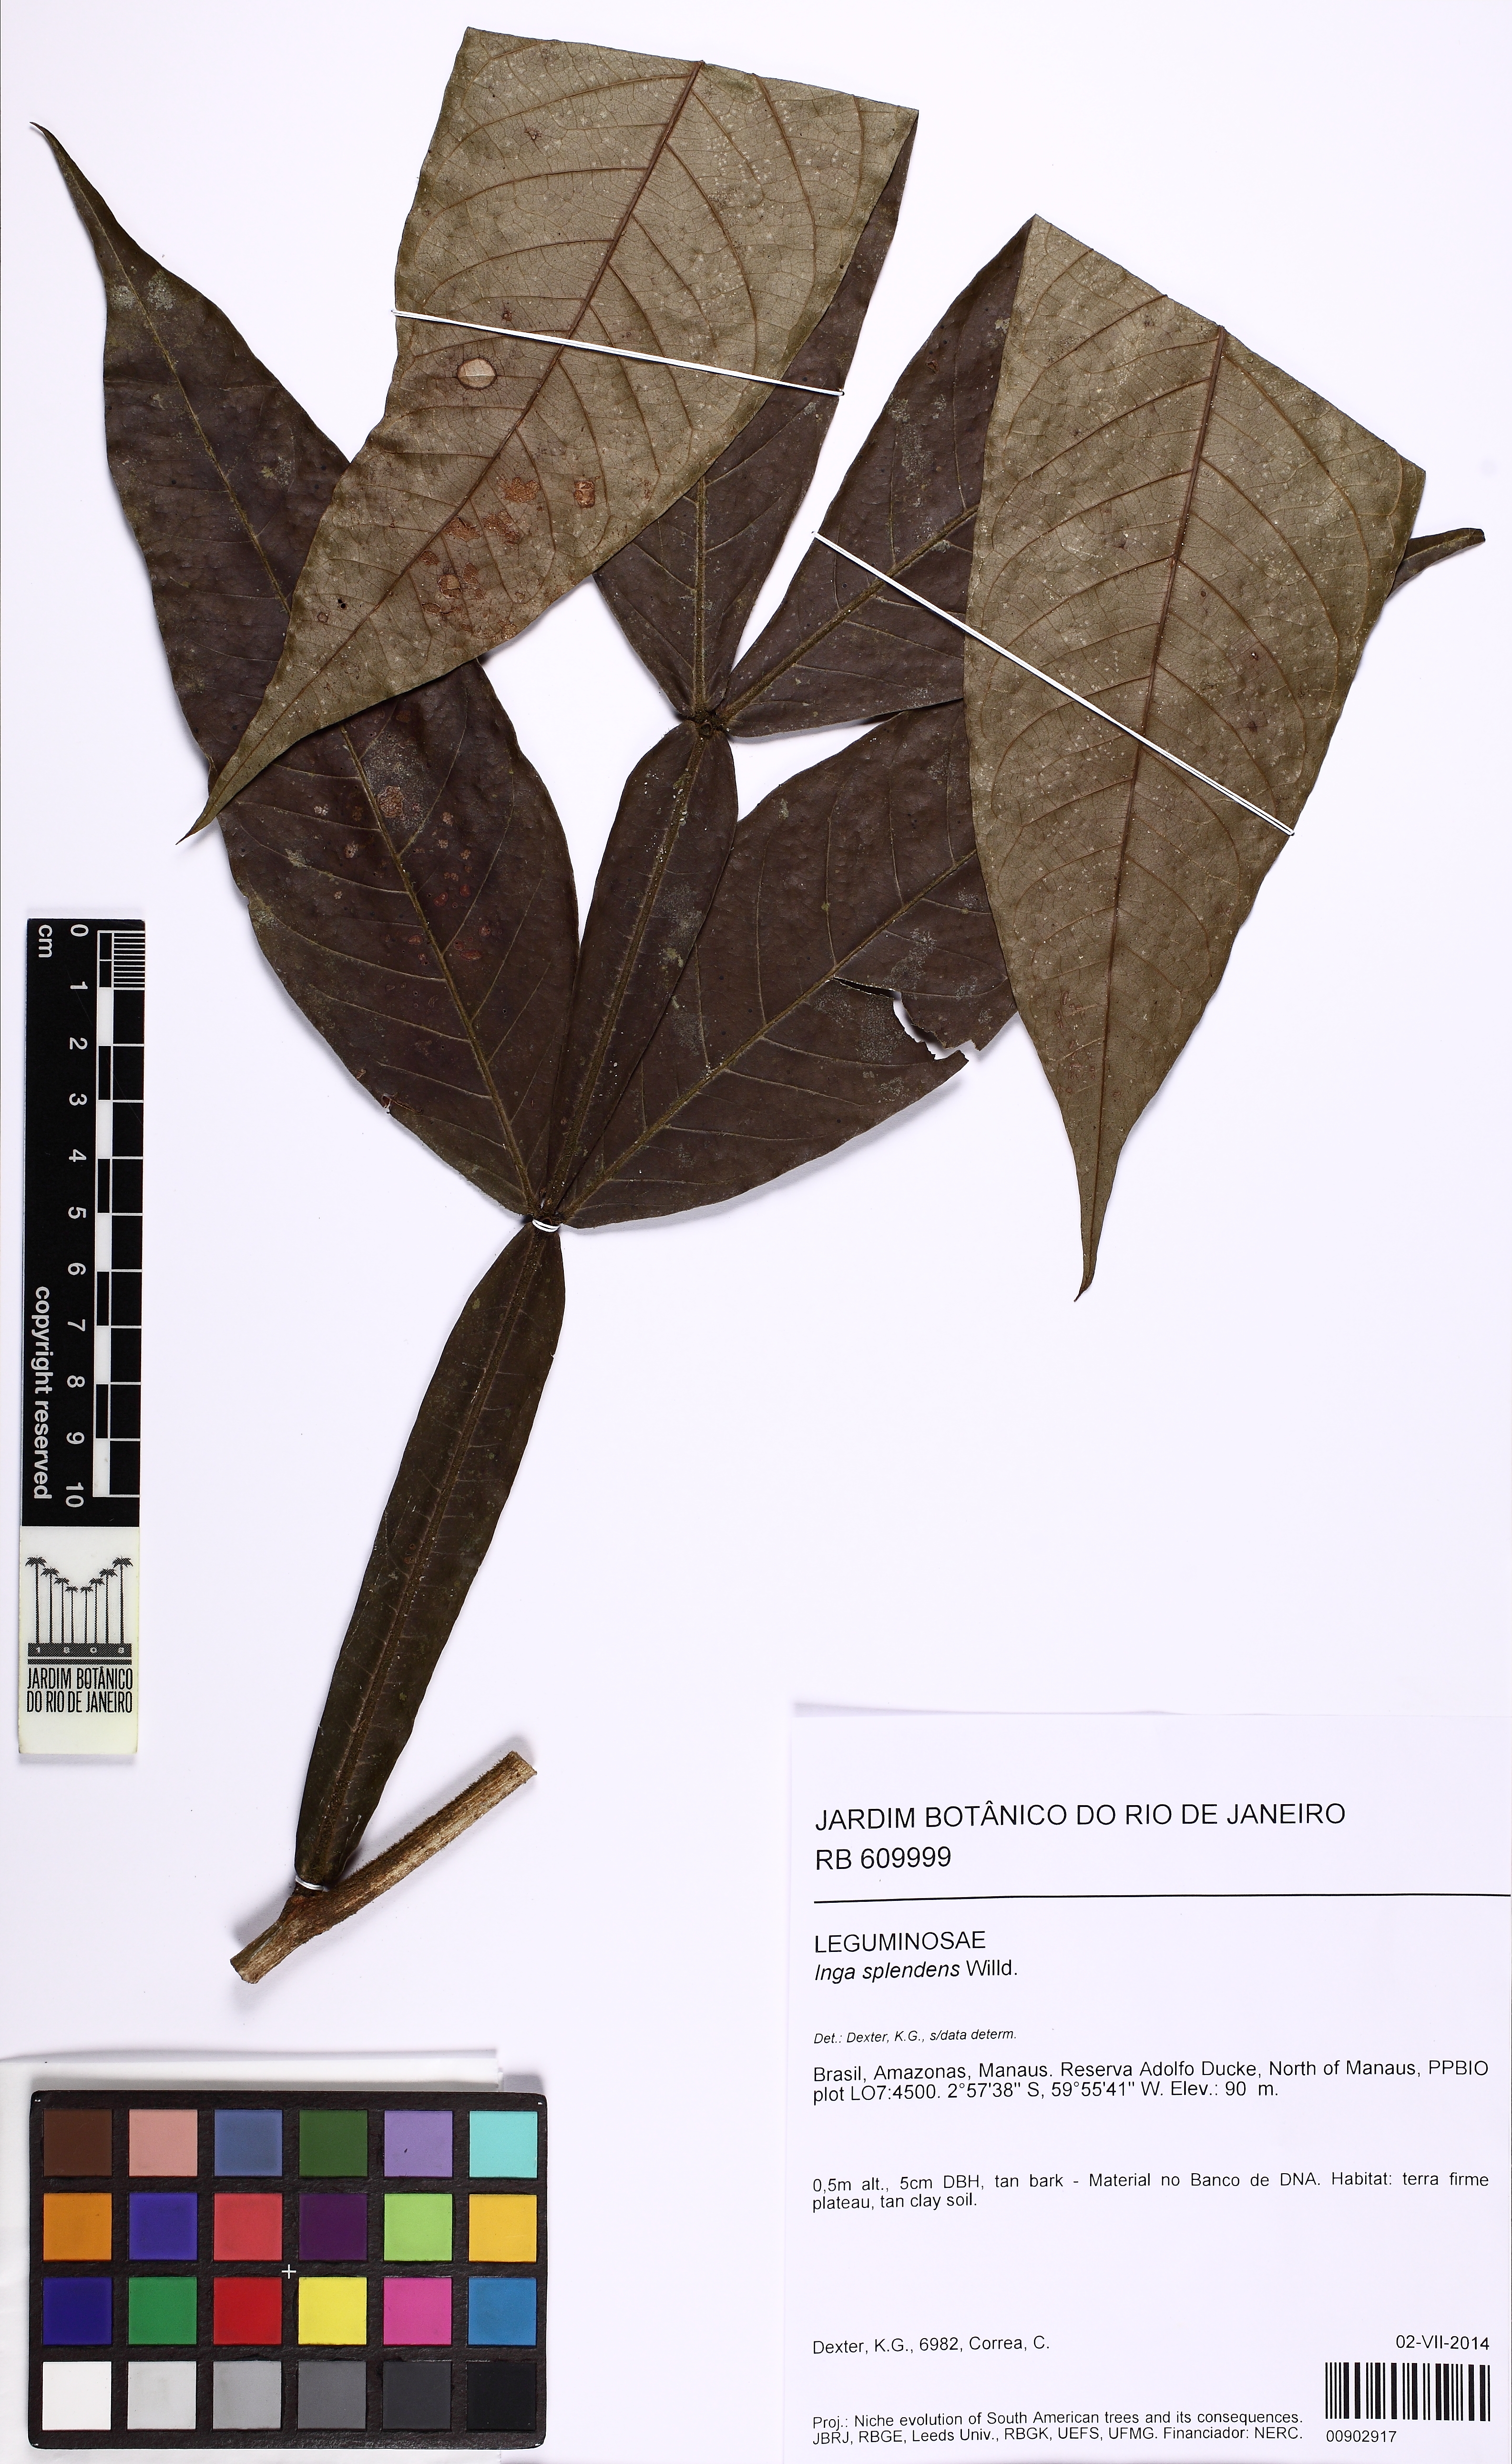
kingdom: Plantae
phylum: Tracheophyta
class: Magnoliopsida
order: Fabales
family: Fabaceae
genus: Inga
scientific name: Inga splendens
